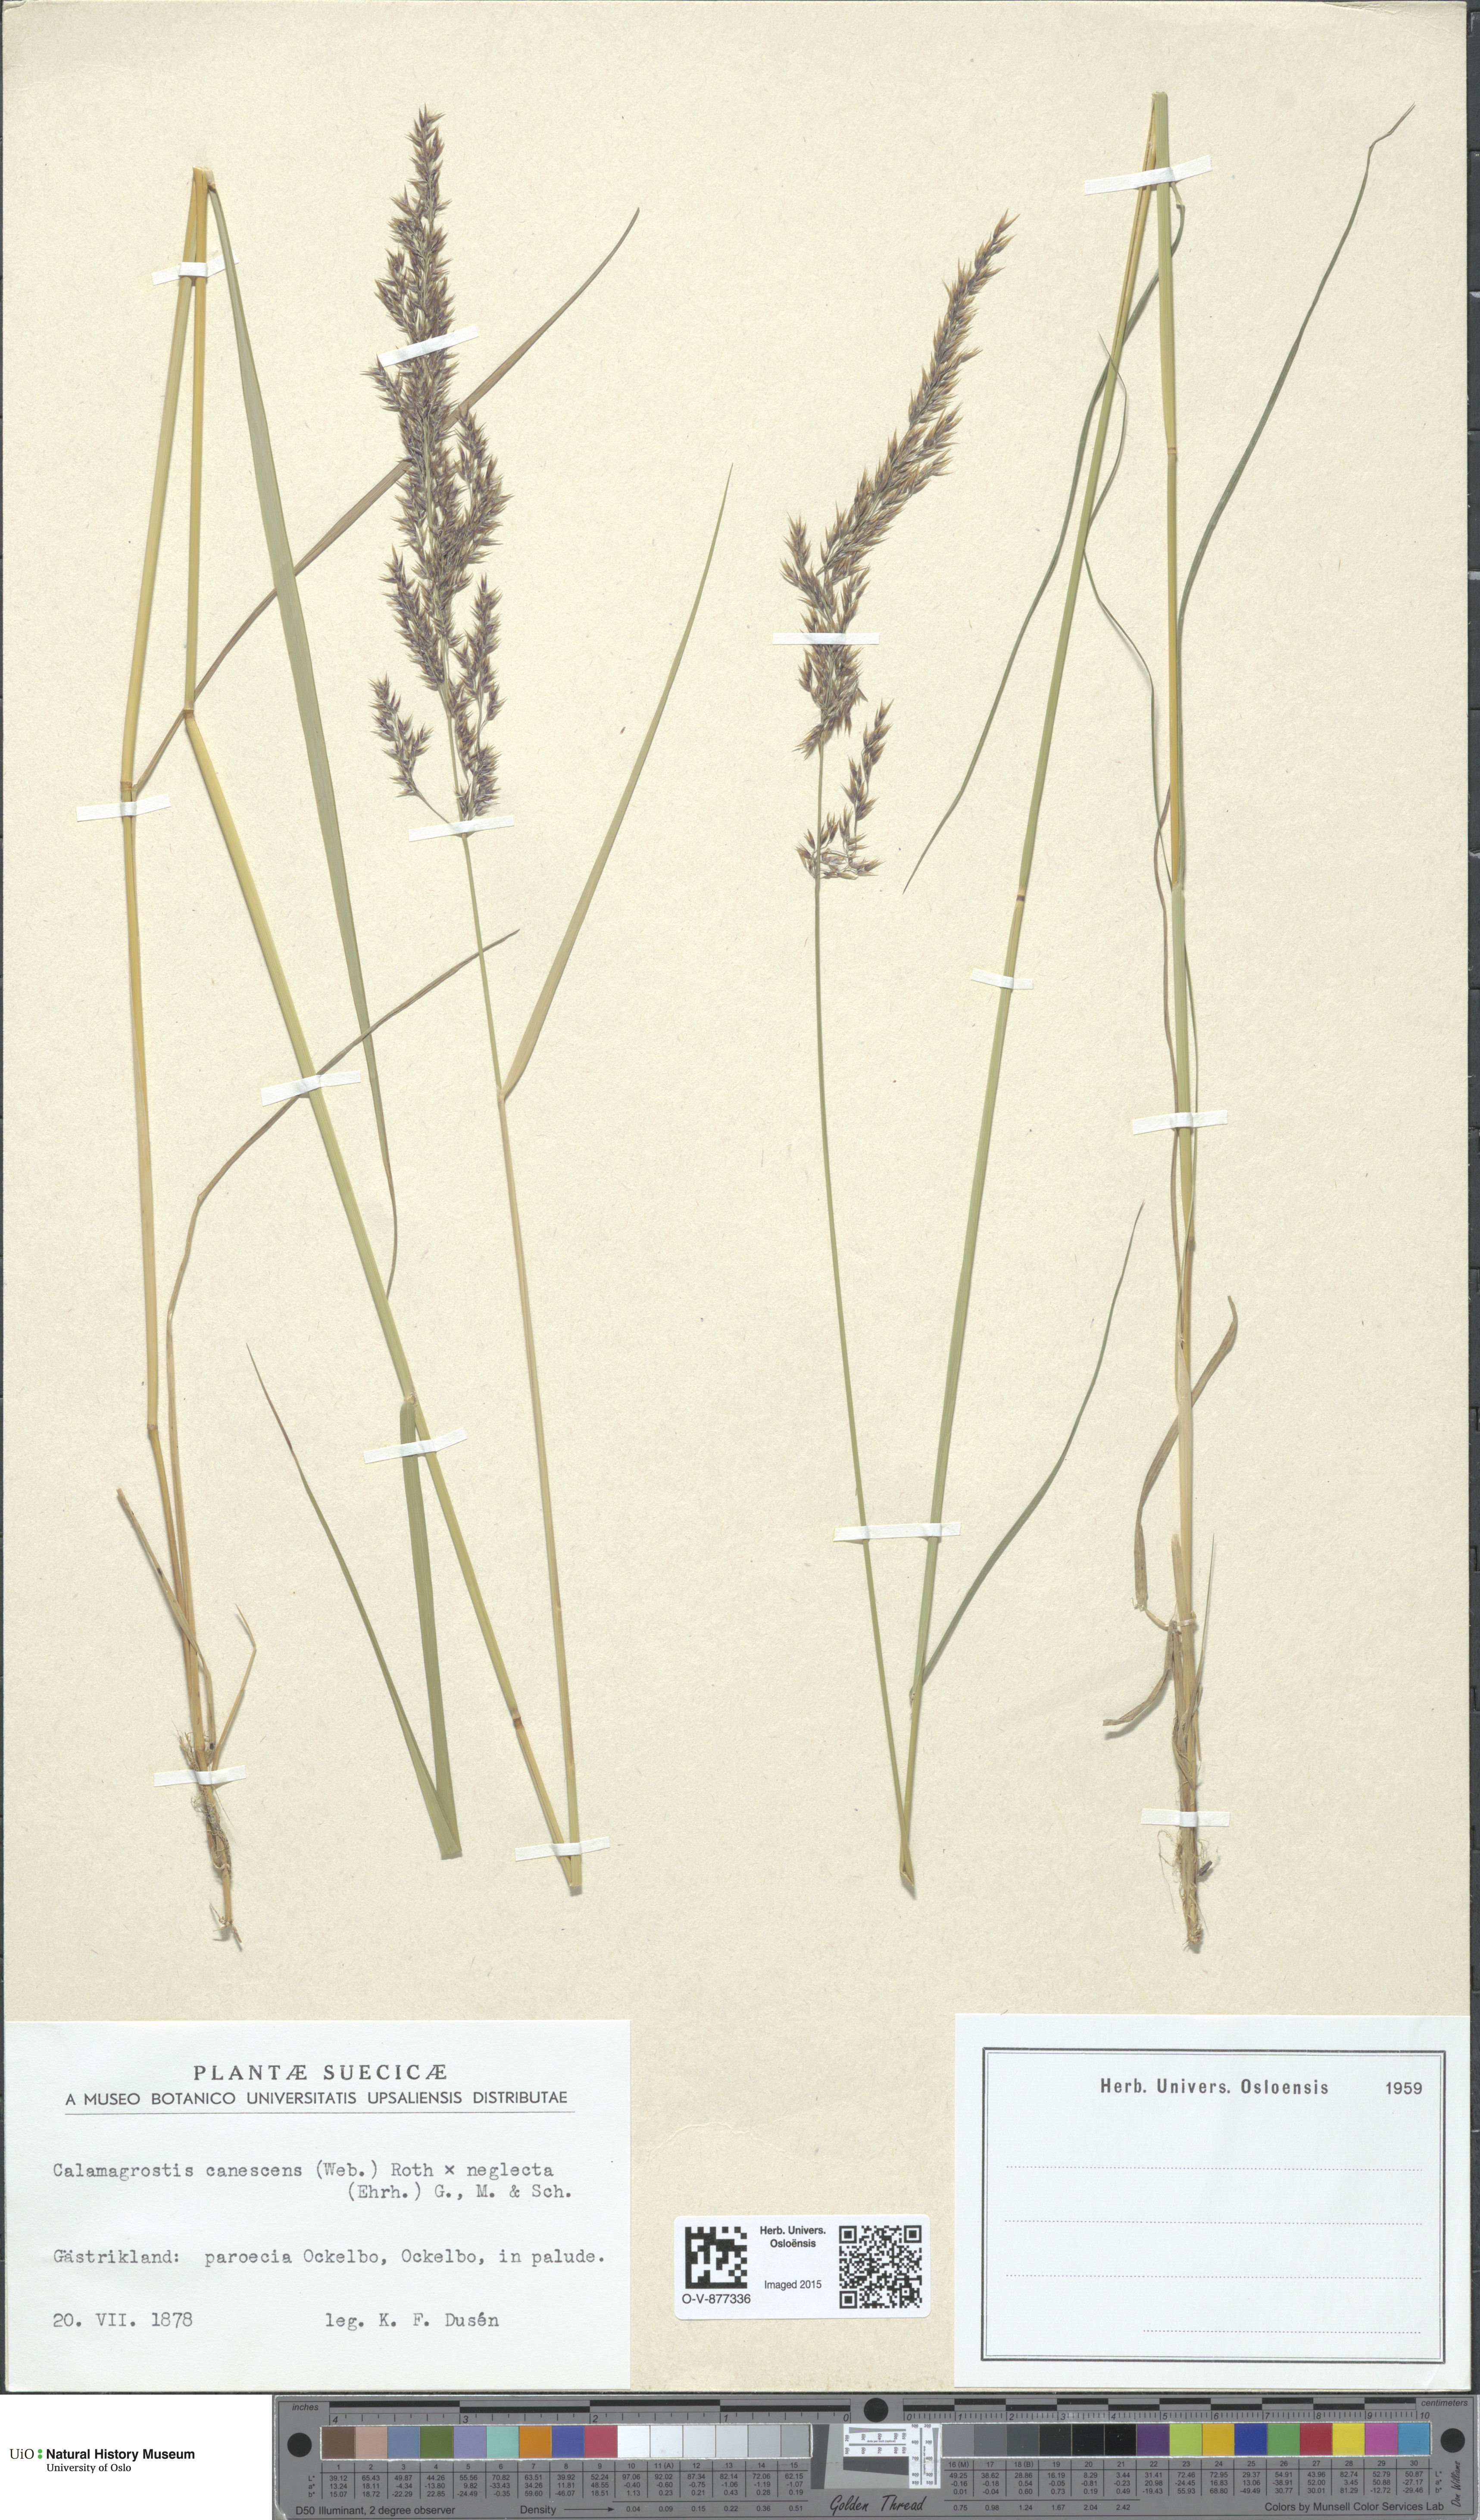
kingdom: Plantae
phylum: Tracheophyta
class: Liliopsida
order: Poales
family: Poaceae
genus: Calamagrostis
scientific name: Calamagrostis
